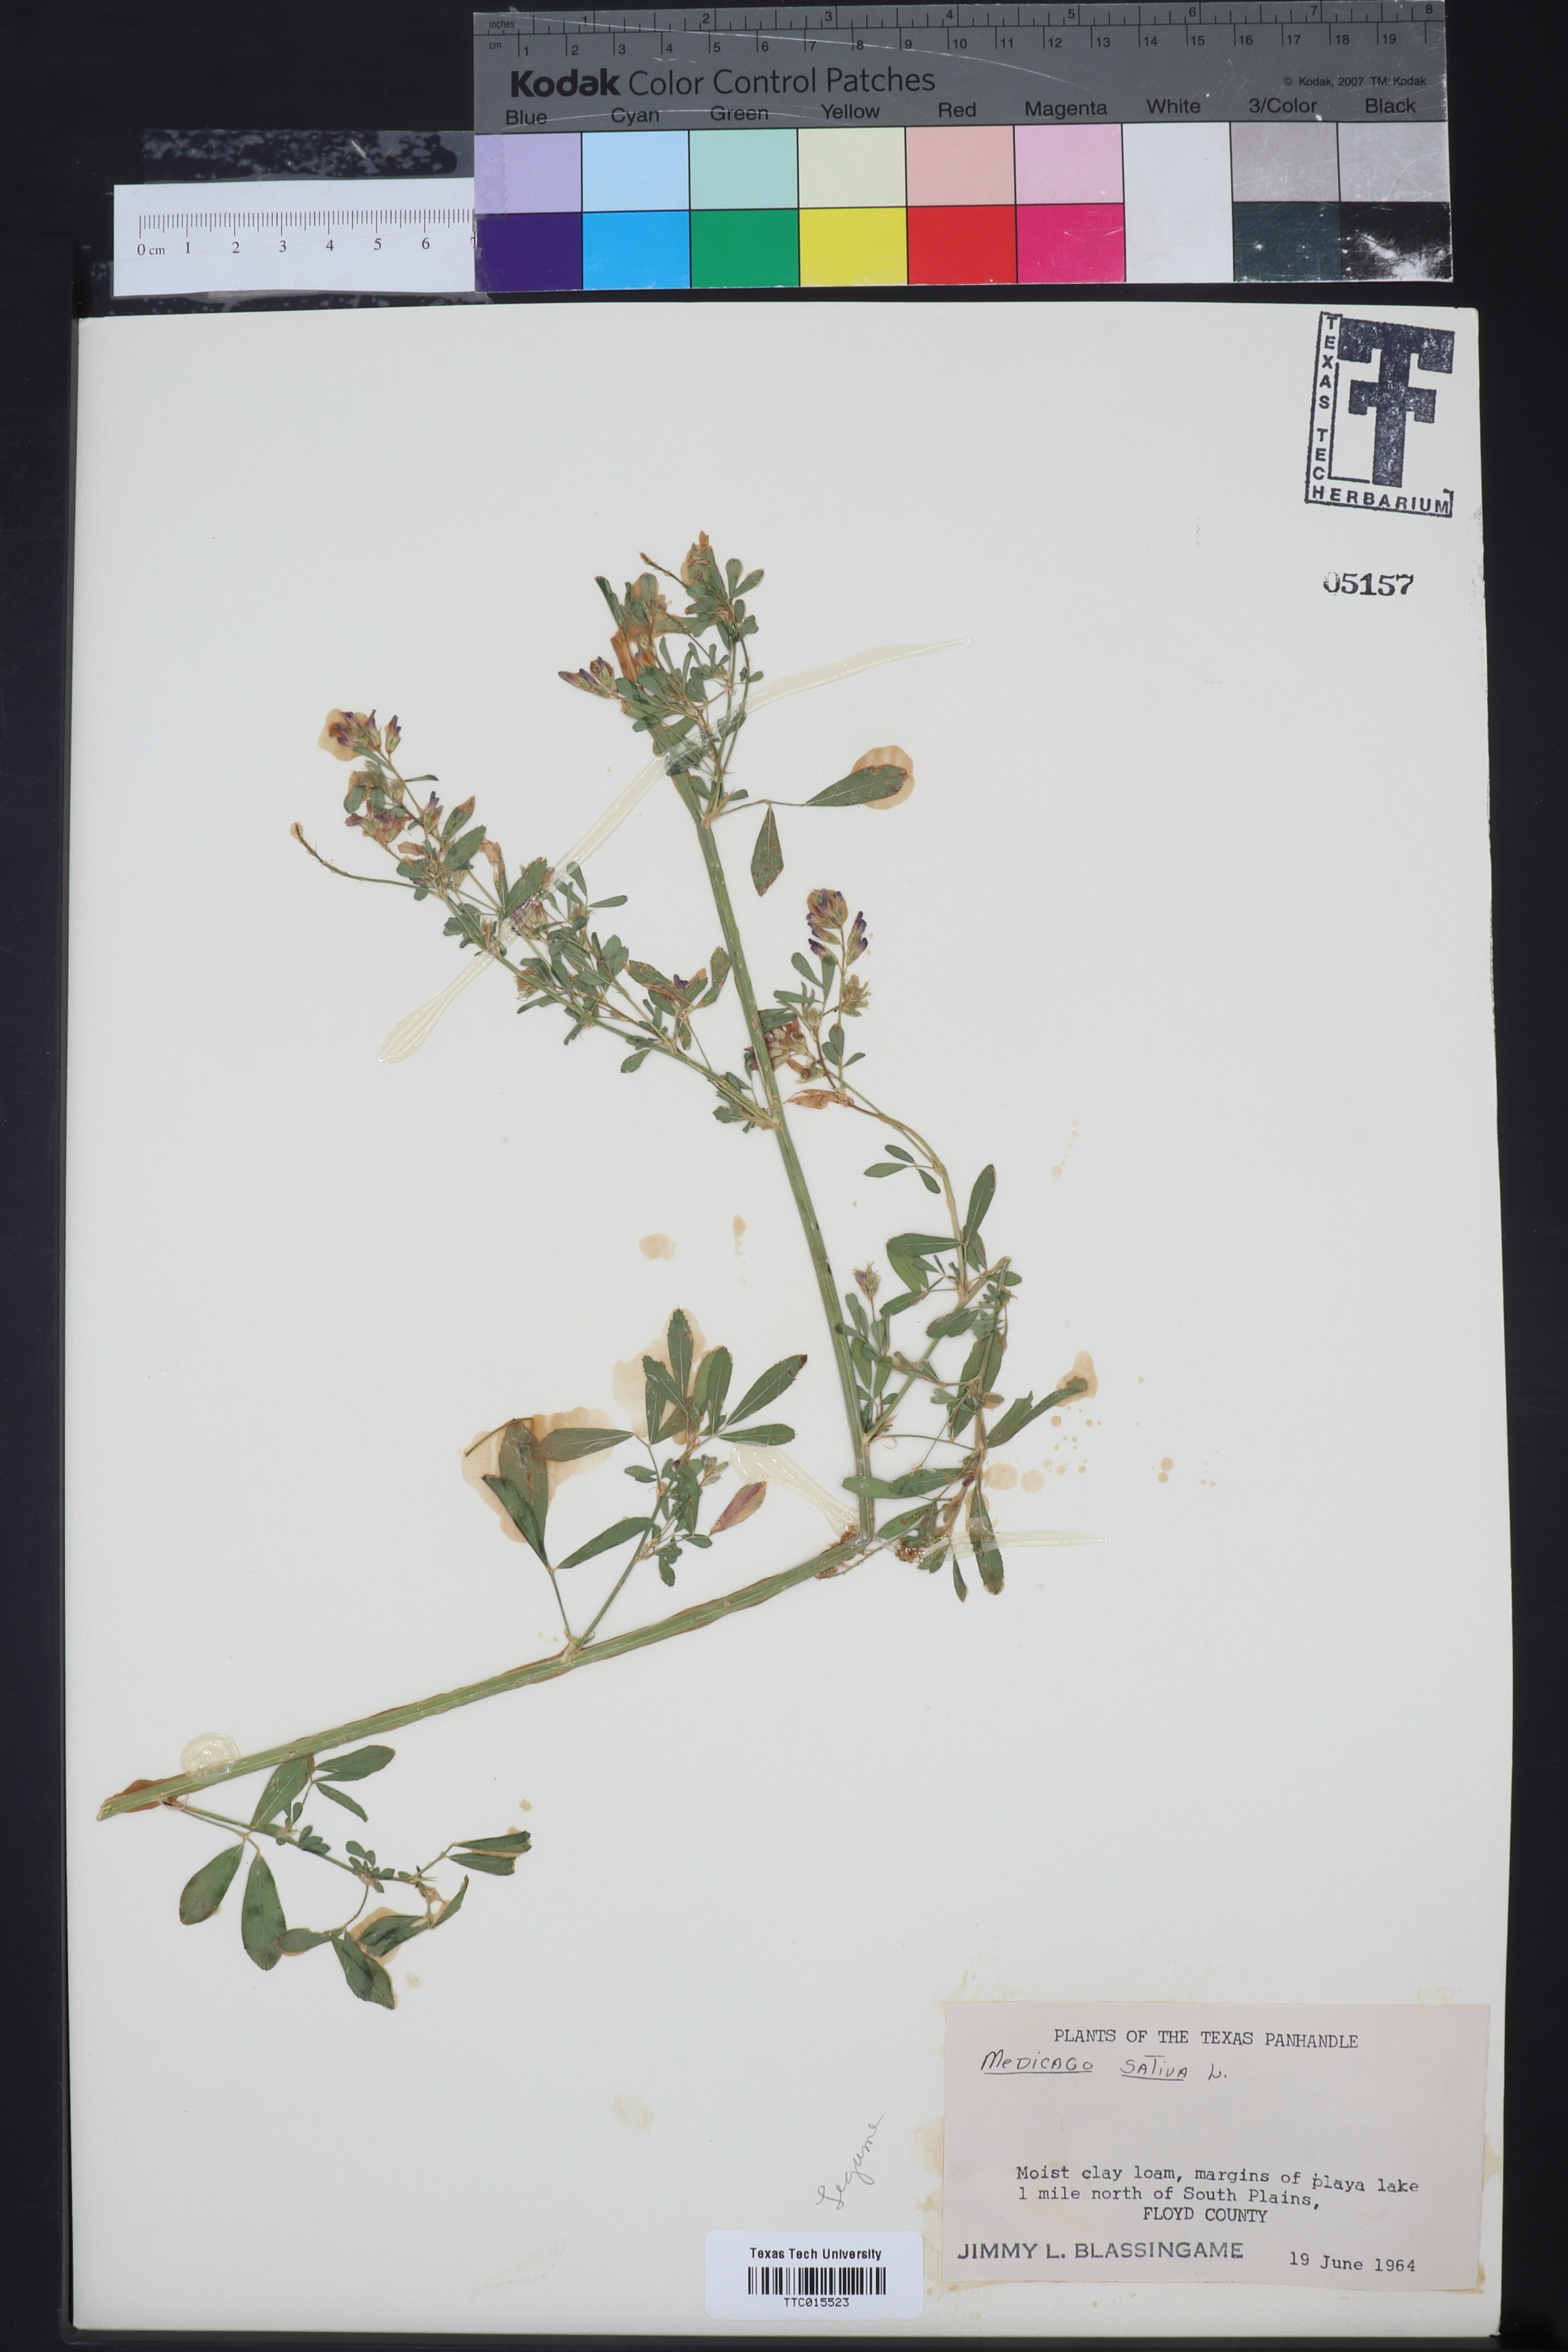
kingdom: Plantae
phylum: Tracheophyta
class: Magnoliopsida
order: Fabales
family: Fabaceae
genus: Medicago
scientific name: Medicago sativa
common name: Alfalfa
